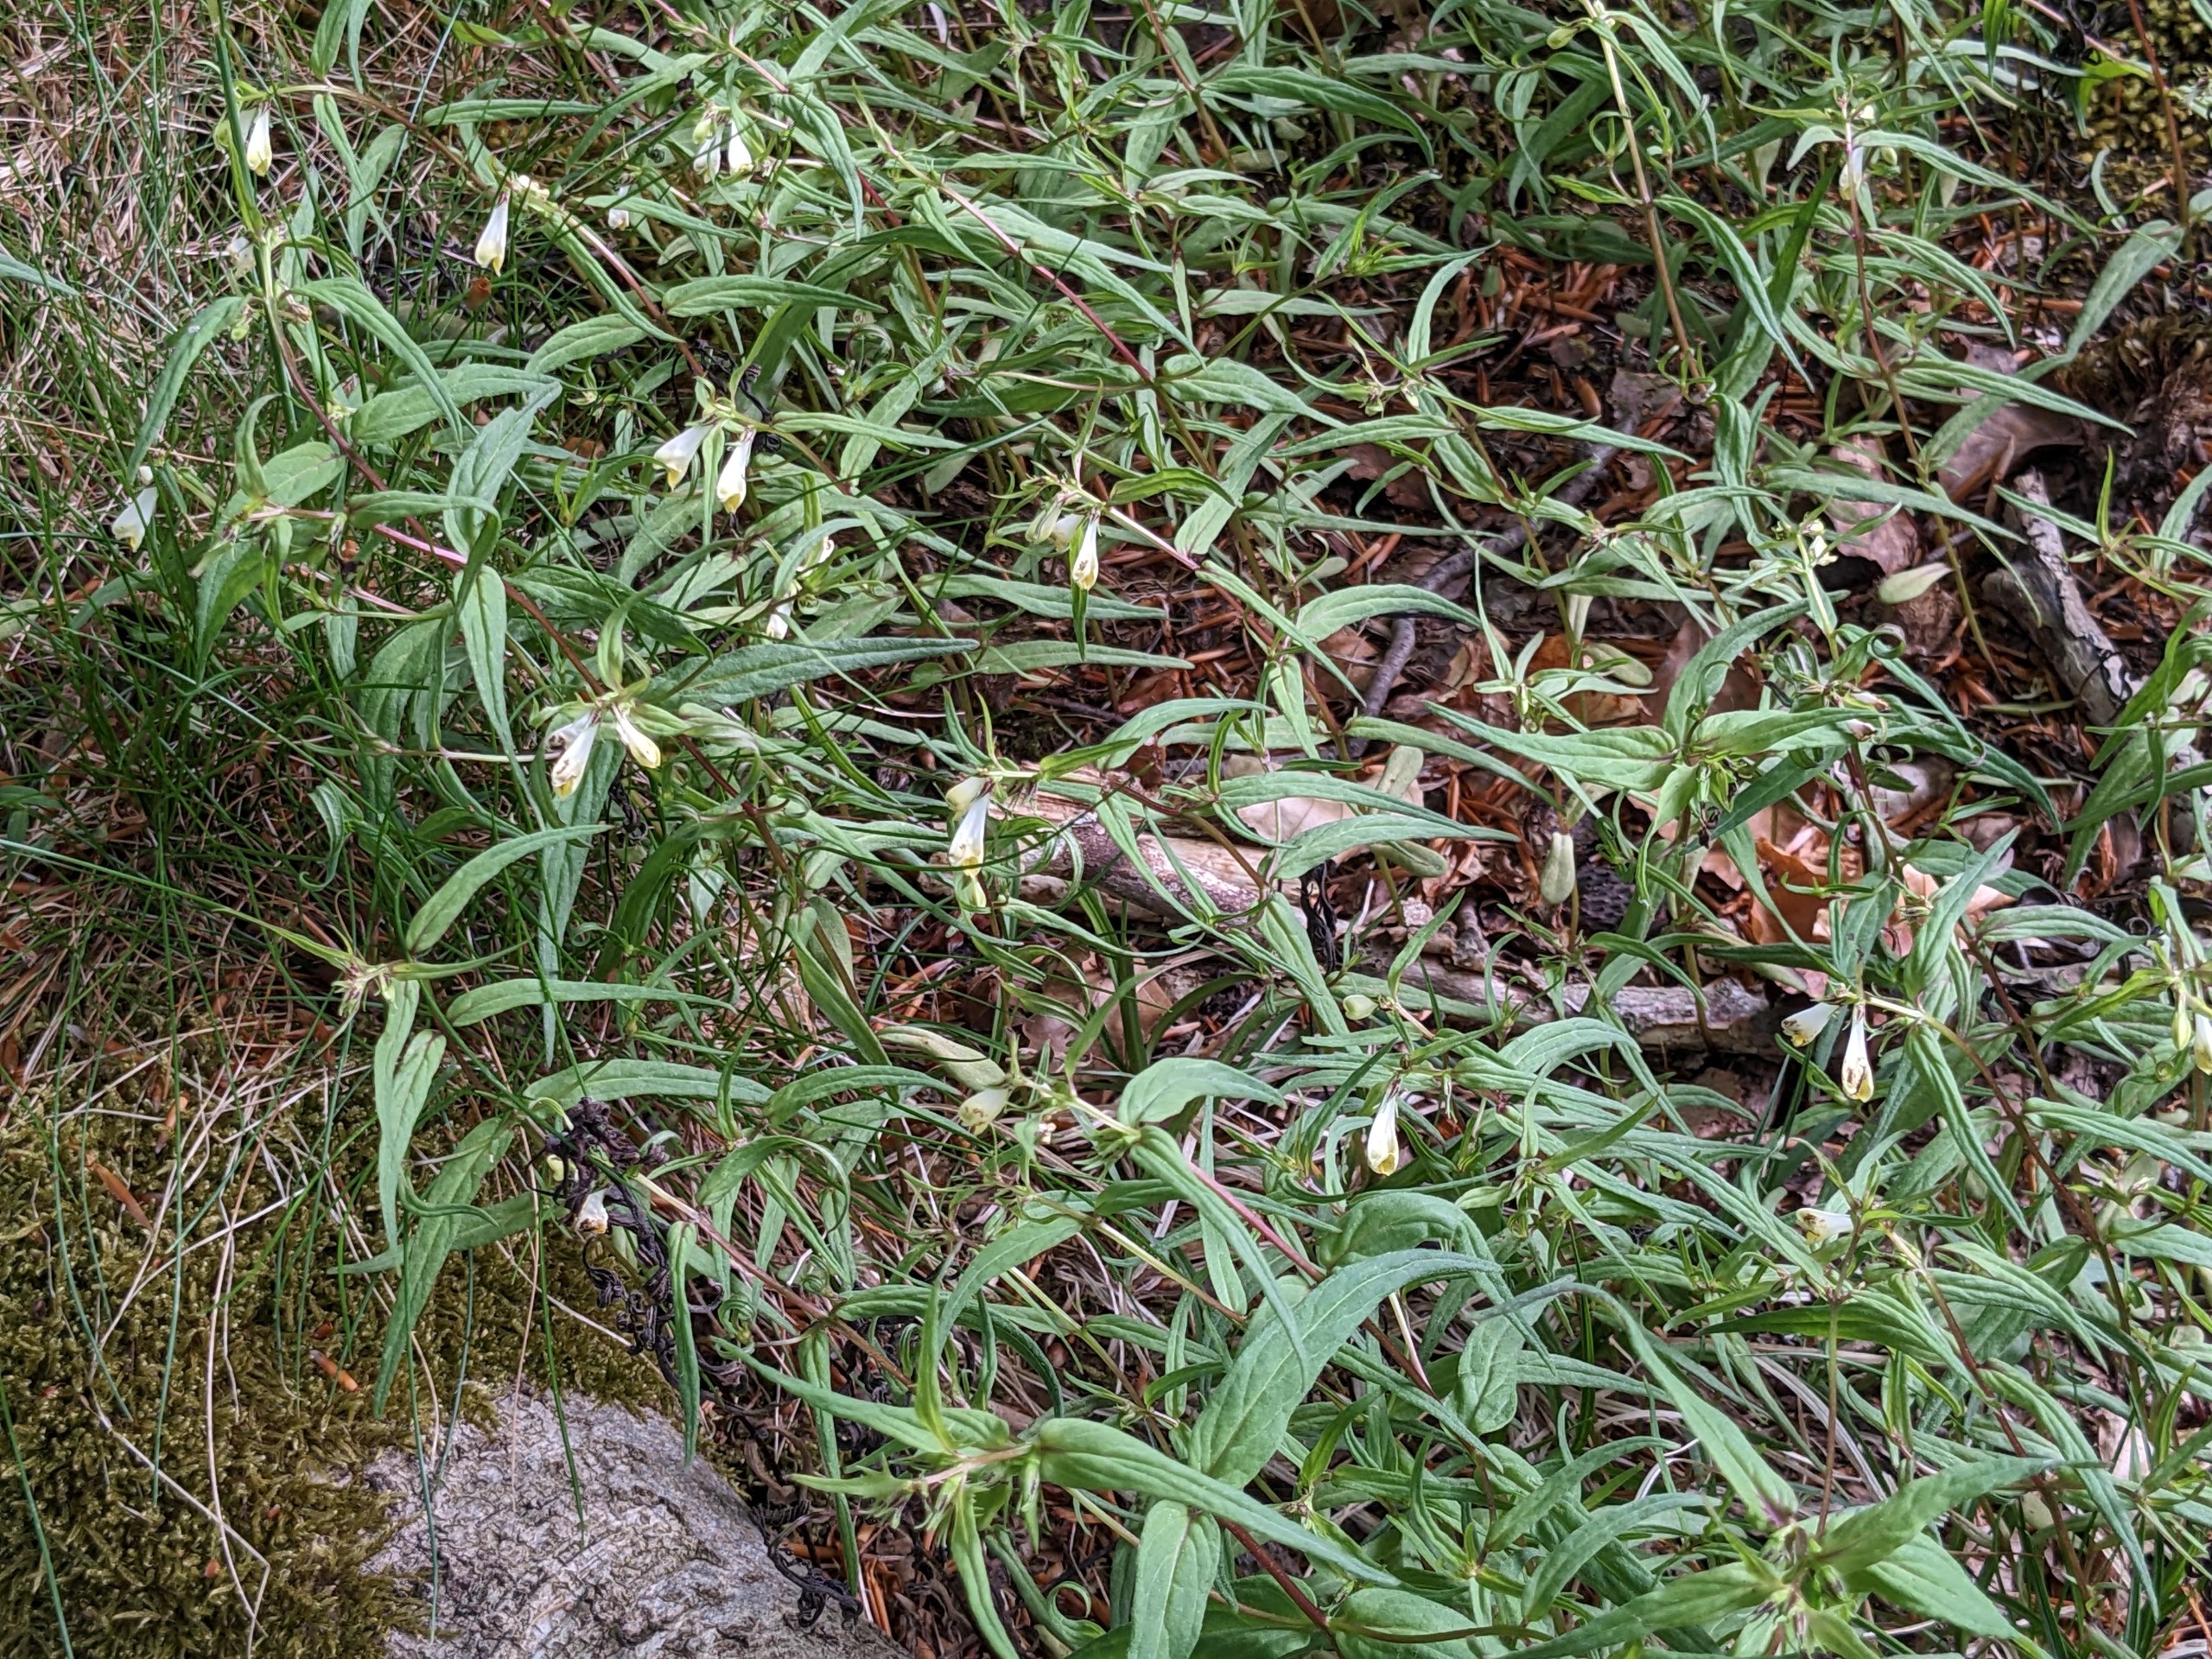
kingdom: Plantae
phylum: Tracheophyta
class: Magnoliopsida
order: Lamiales
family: Orobanchaceae
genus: Melampyrum
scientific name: Melampyrum pratense
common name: Almindelig kohvede
